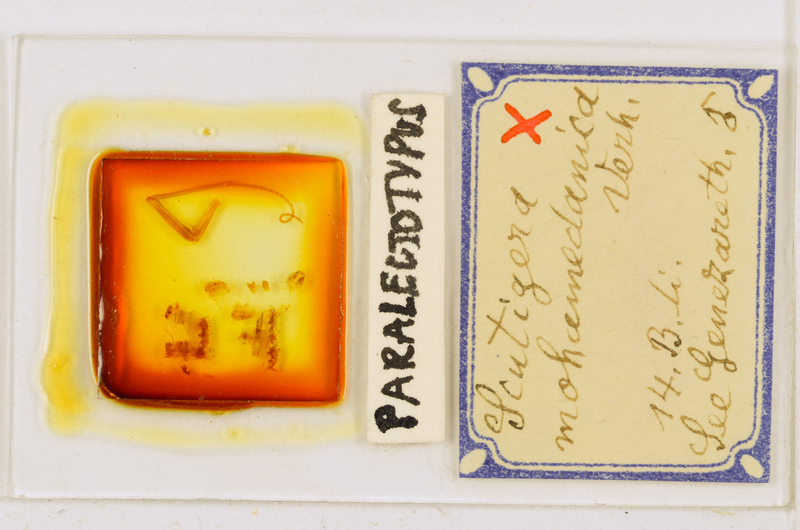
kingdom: Animalia
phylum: Arthropoda
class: Chilopoda
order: Scutigeromorpha
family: Scutigeridae
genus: Scutigera
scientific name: Scutigera coleoptrata
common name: House centipede
